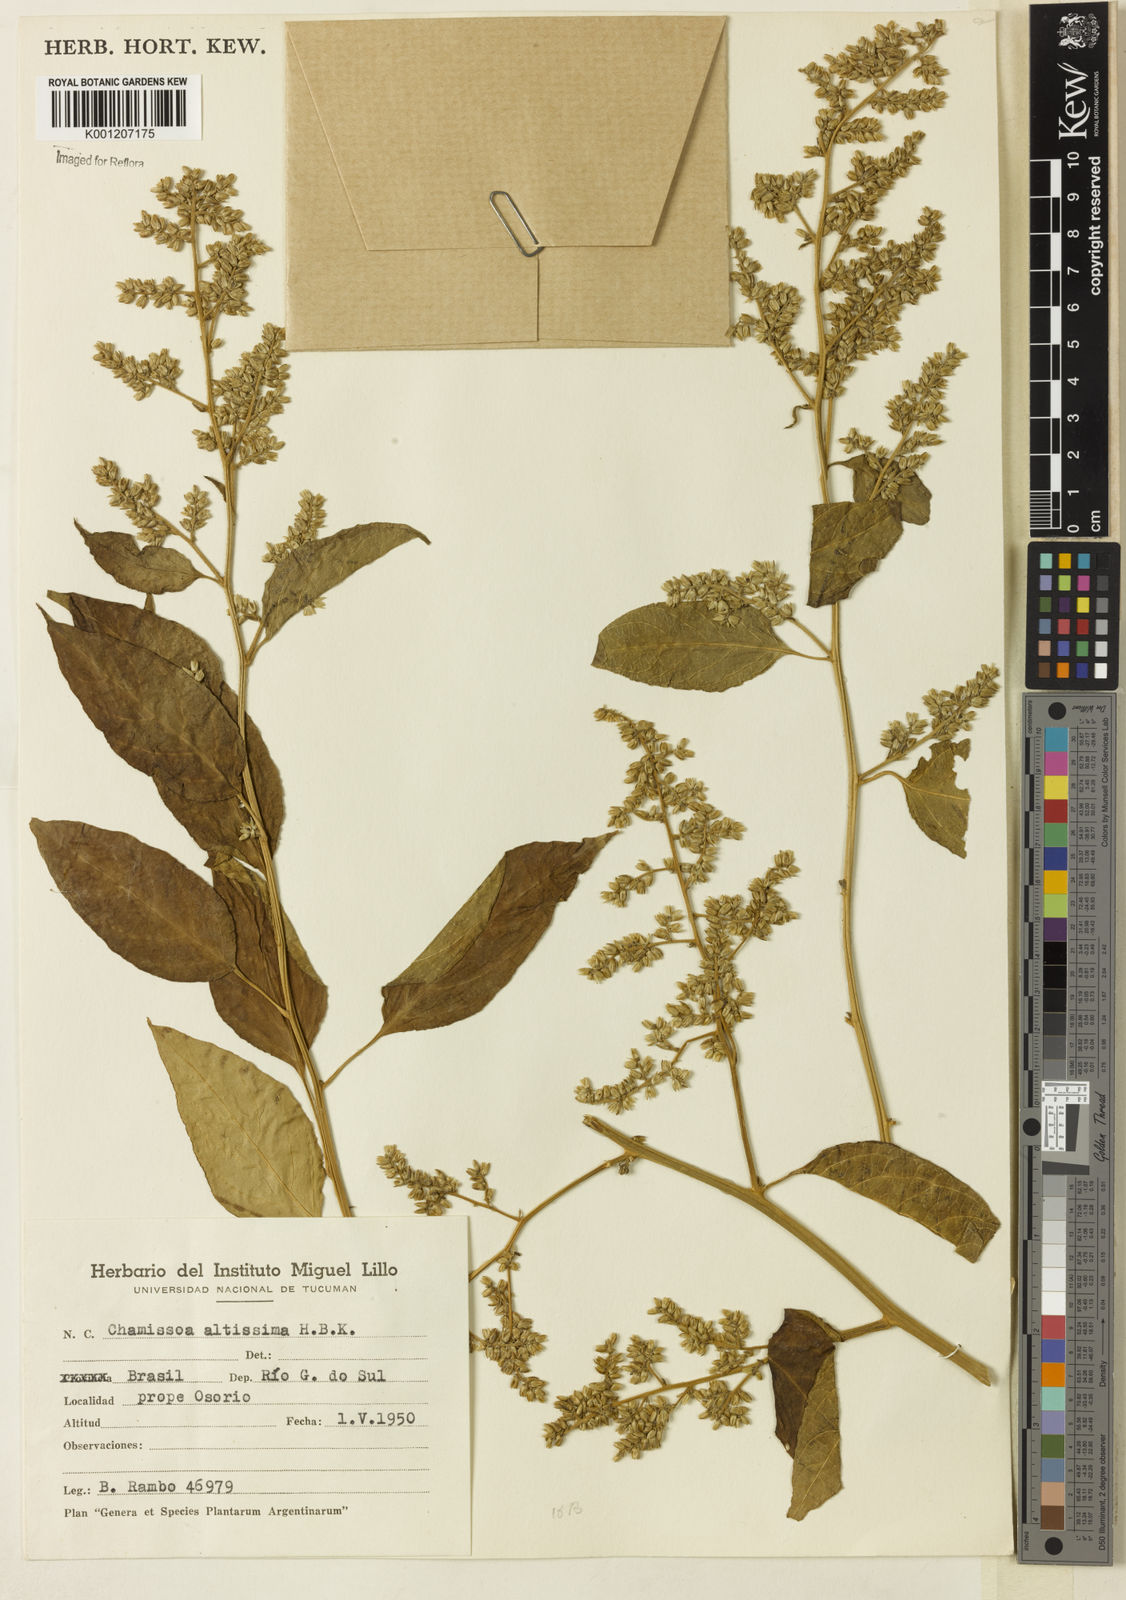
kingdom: Plantae
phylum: Tracheophyta
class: Magnoliopsida
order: Caryophyllales
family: Amaranthaceae
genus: Chamissoa
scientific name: Chamissoa altissima
